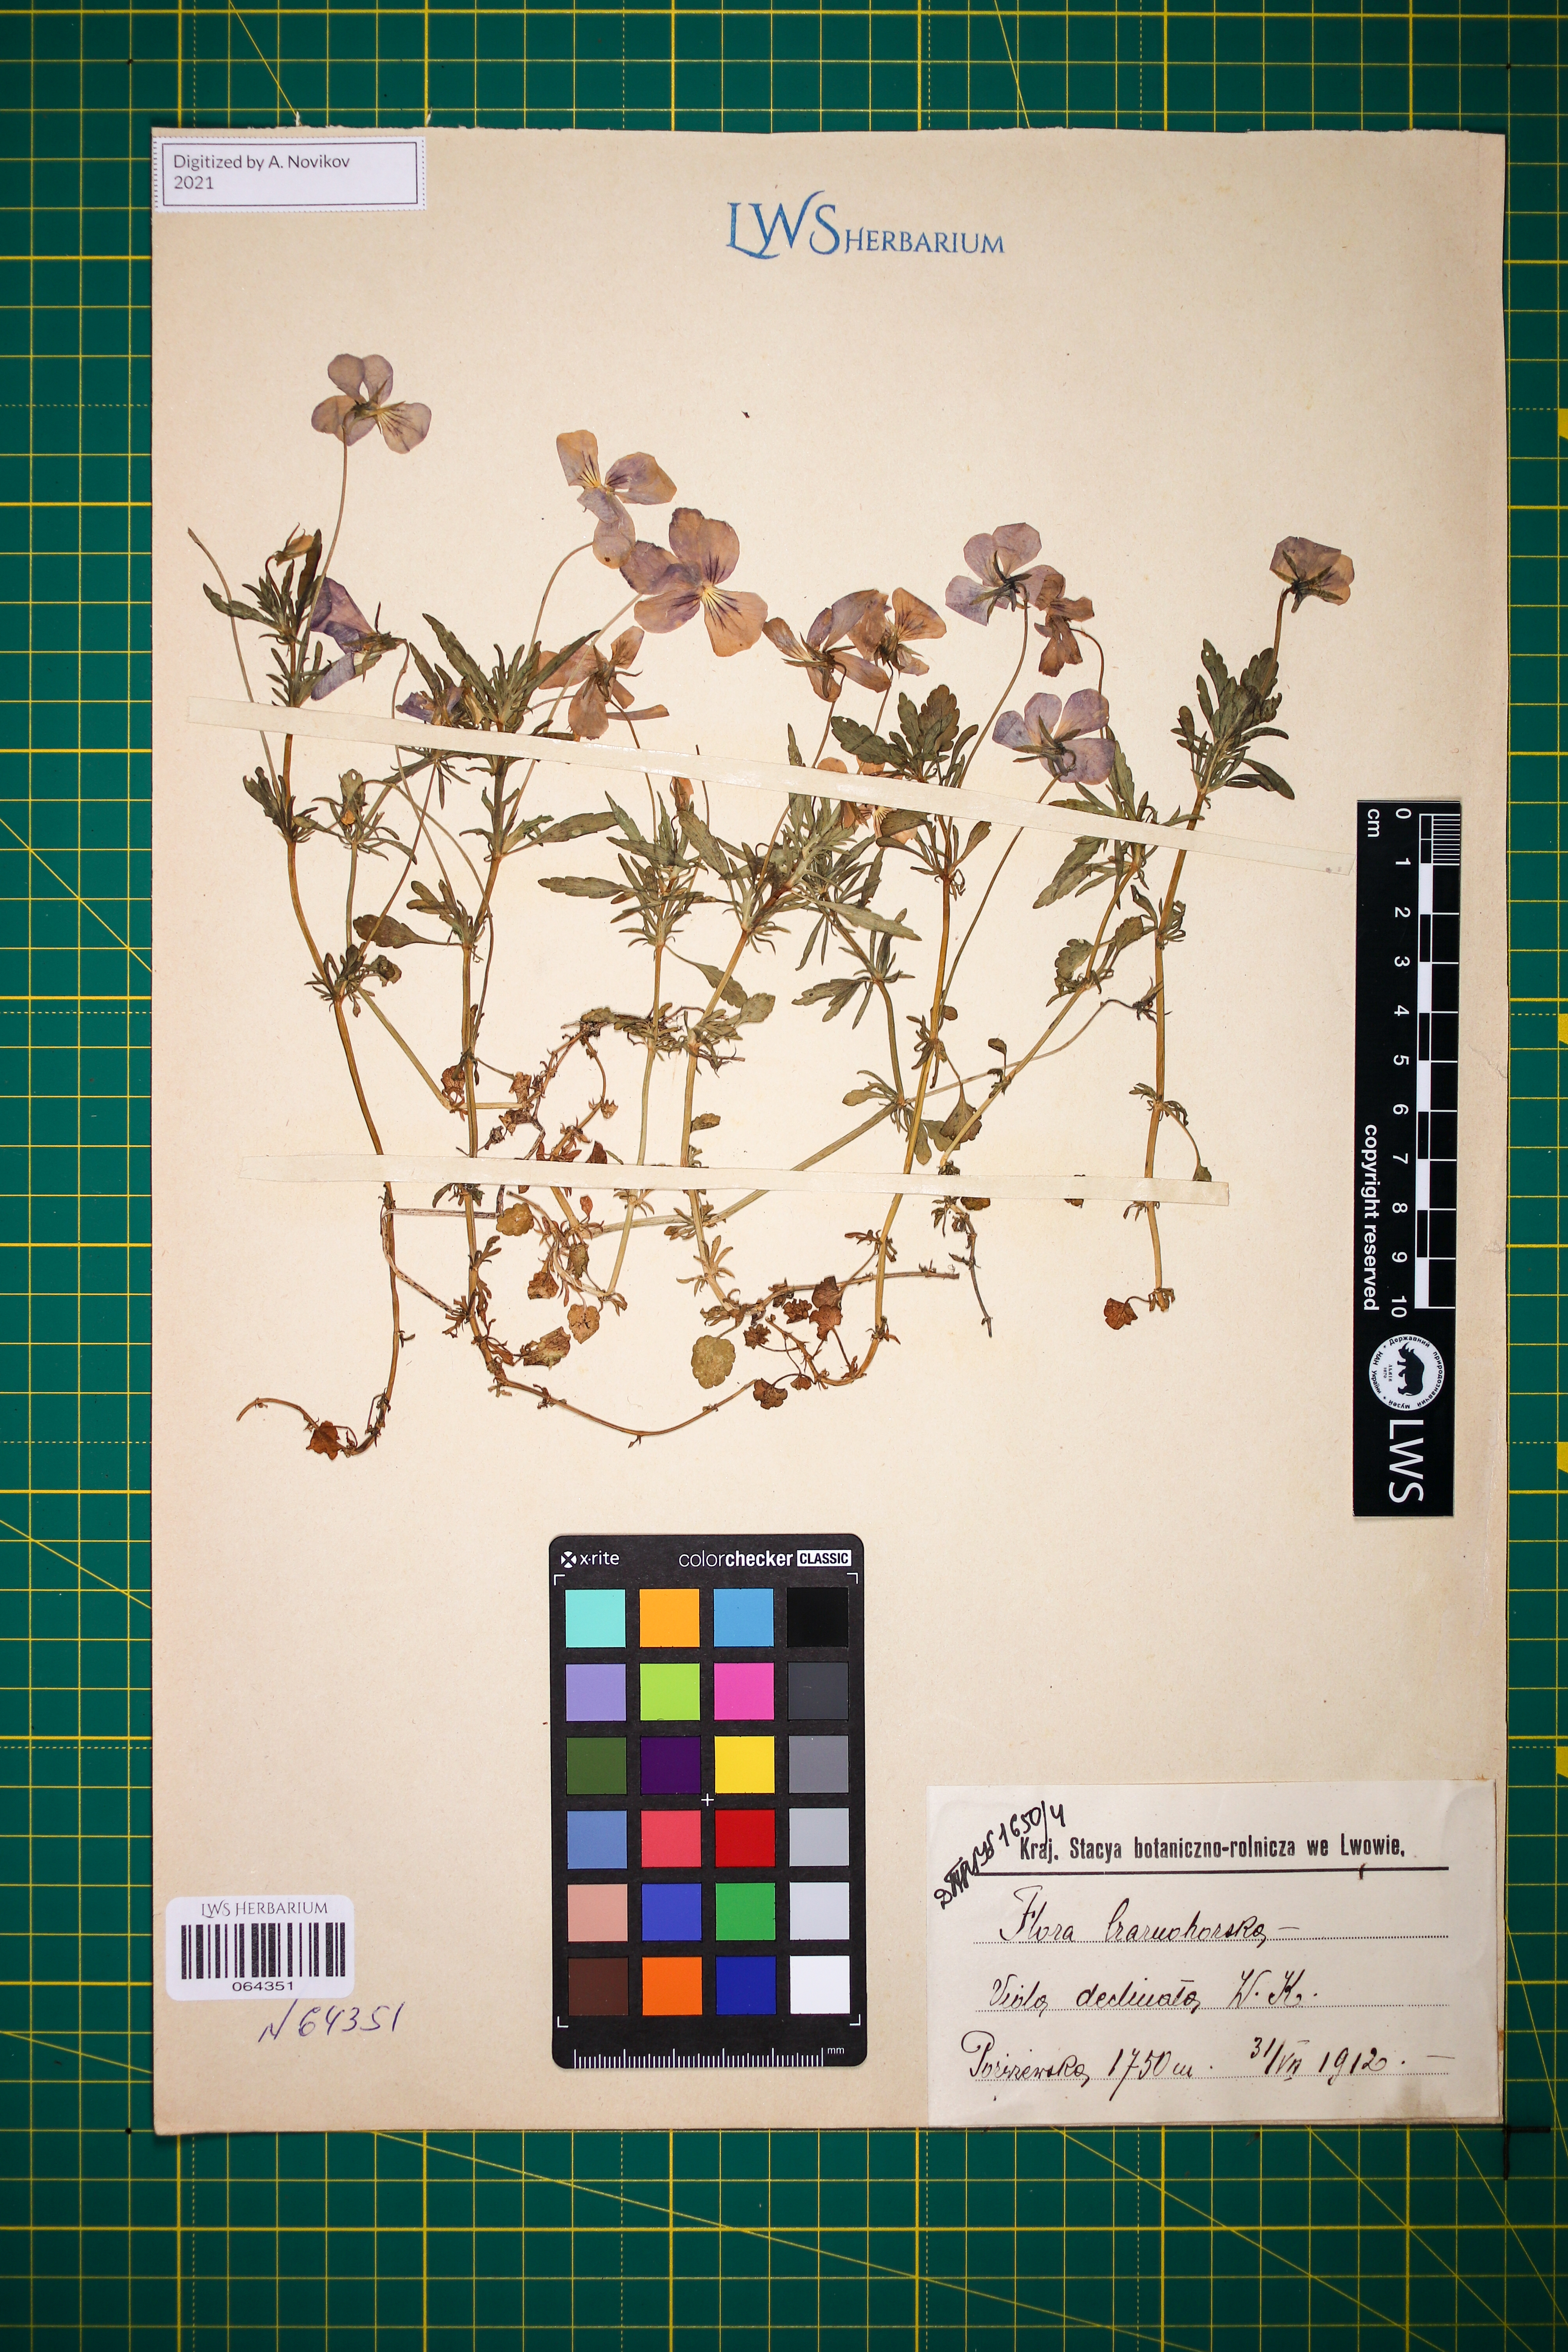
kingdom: Plantae
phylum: Tracheophyta
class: Magnoliopsida
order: Malpighiales
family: Violaceae
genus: Viola
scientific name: Viola declinata
